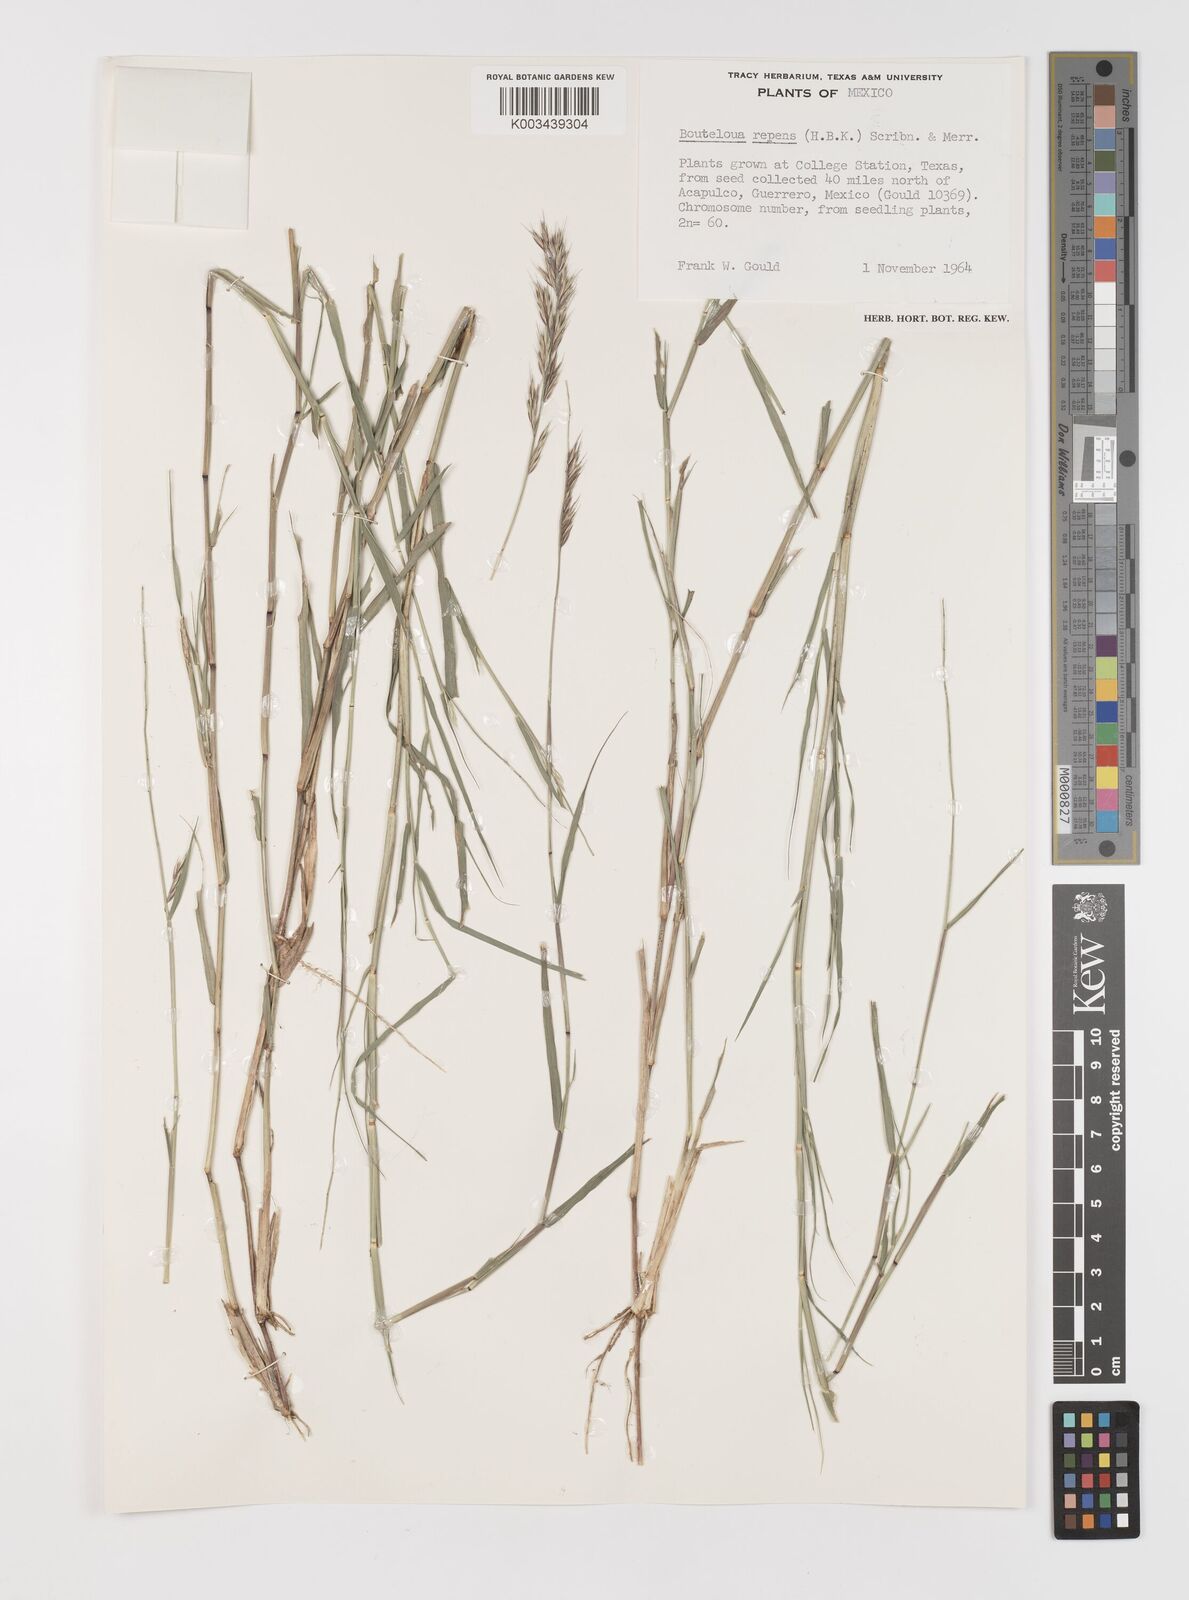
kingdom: Plantae
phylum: Tracheophyta
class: Liliopsida
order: Poales
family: Poaceae
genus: Bouteloua
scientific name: Bouteloua repens
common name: Slender grama
